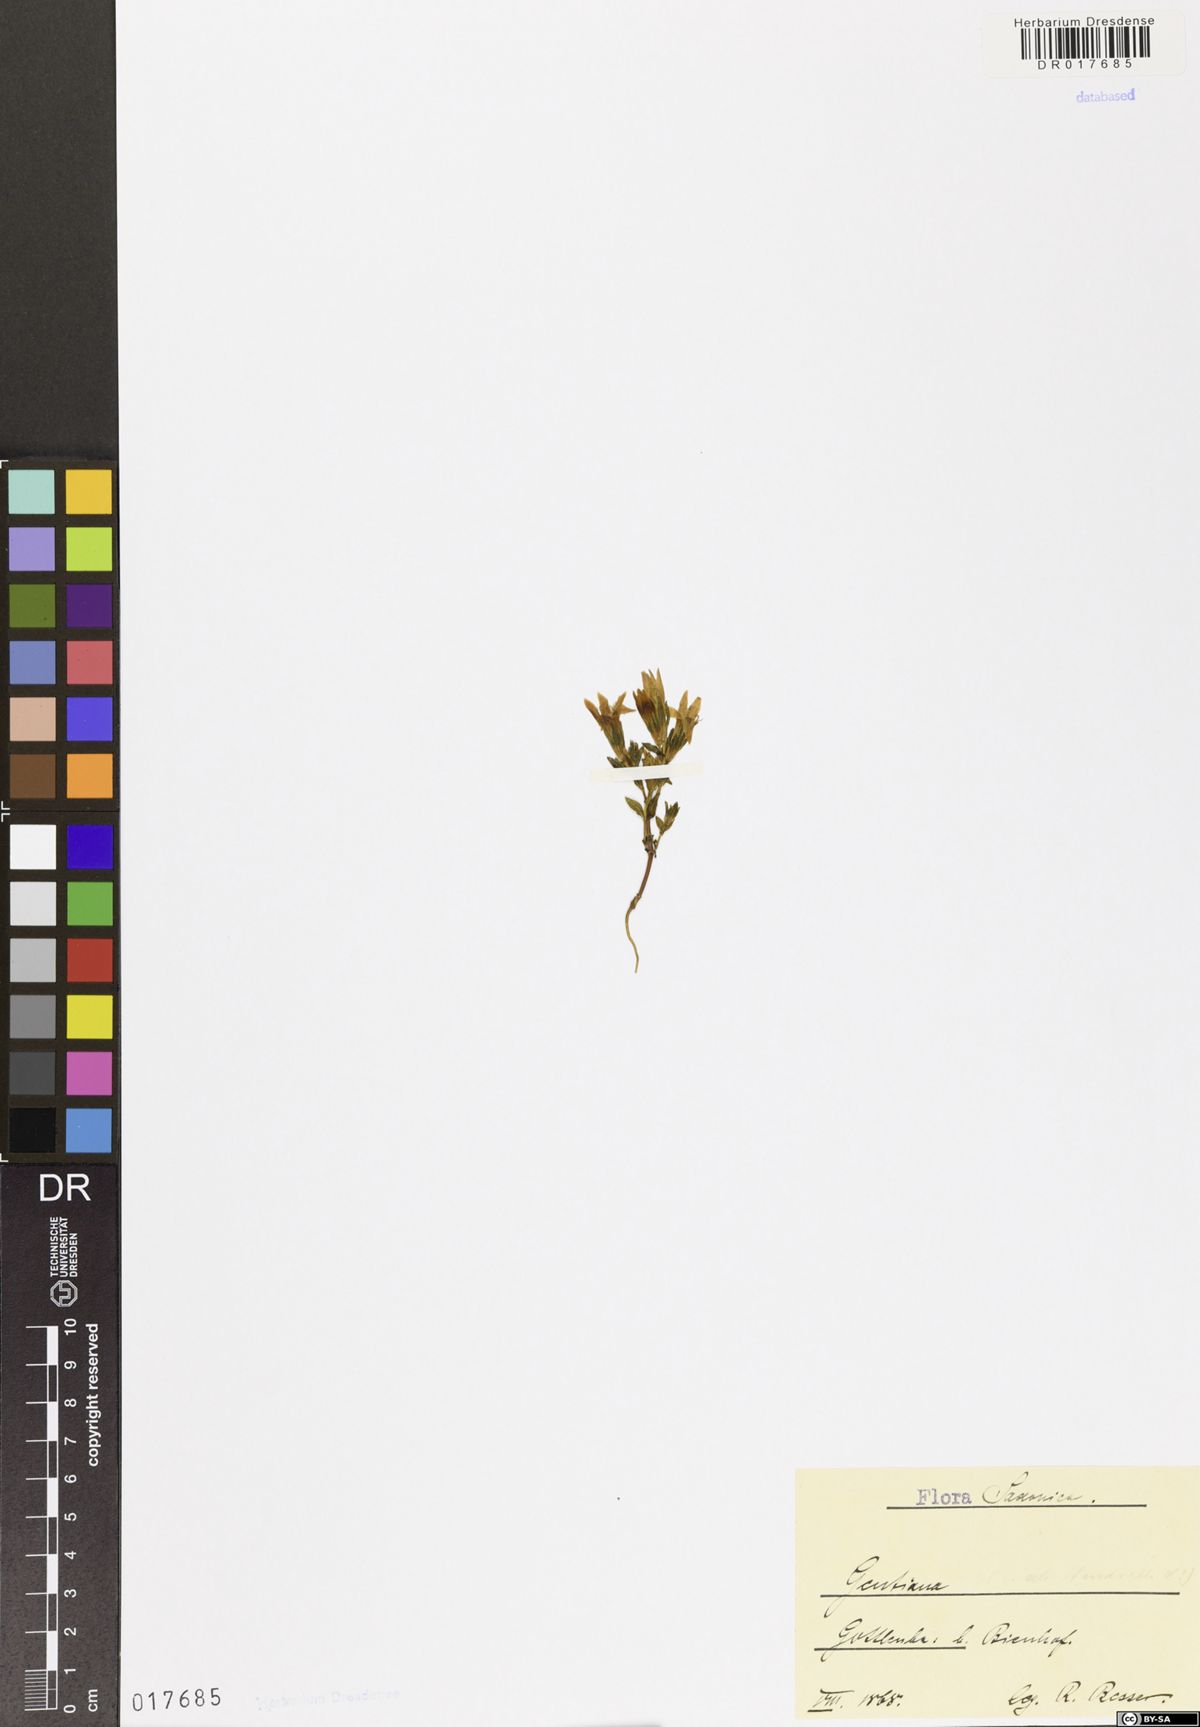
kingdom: Plantae
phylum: Tracheophyta
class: Magnoliopsida
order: Gentianales
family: Gentianaceae
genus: Gentianella
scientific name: Gentianella
